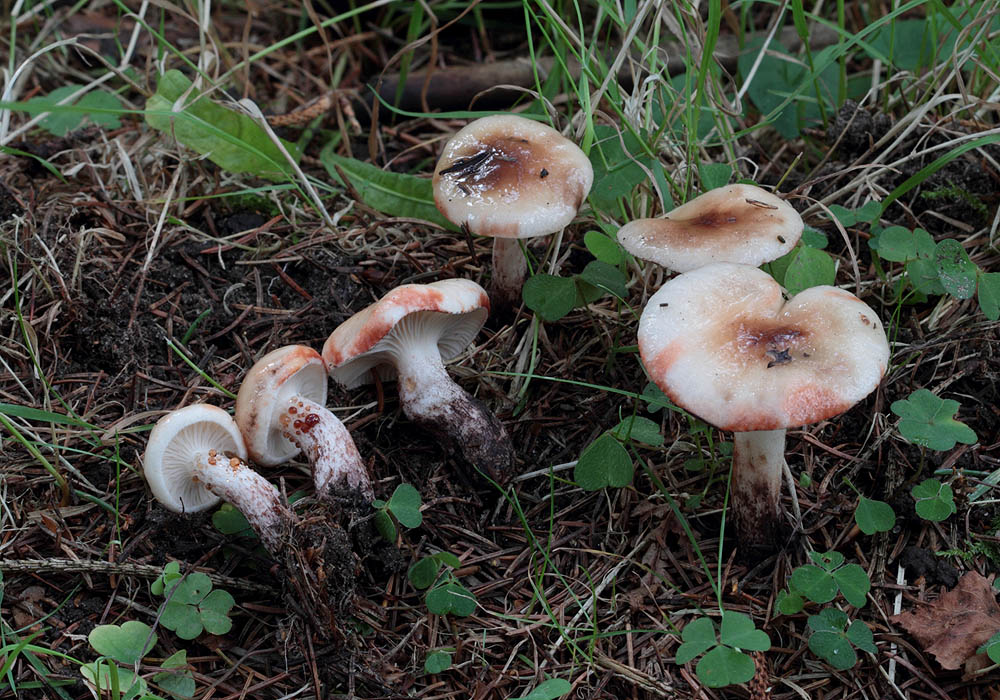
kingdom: Fungi
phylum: Basidiomycota
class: Agaricomycetes
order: Boletales
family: Gomphidiaceae
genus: Gomphidius
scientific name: Gomphidius maculatus
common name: rødmende slimslør
